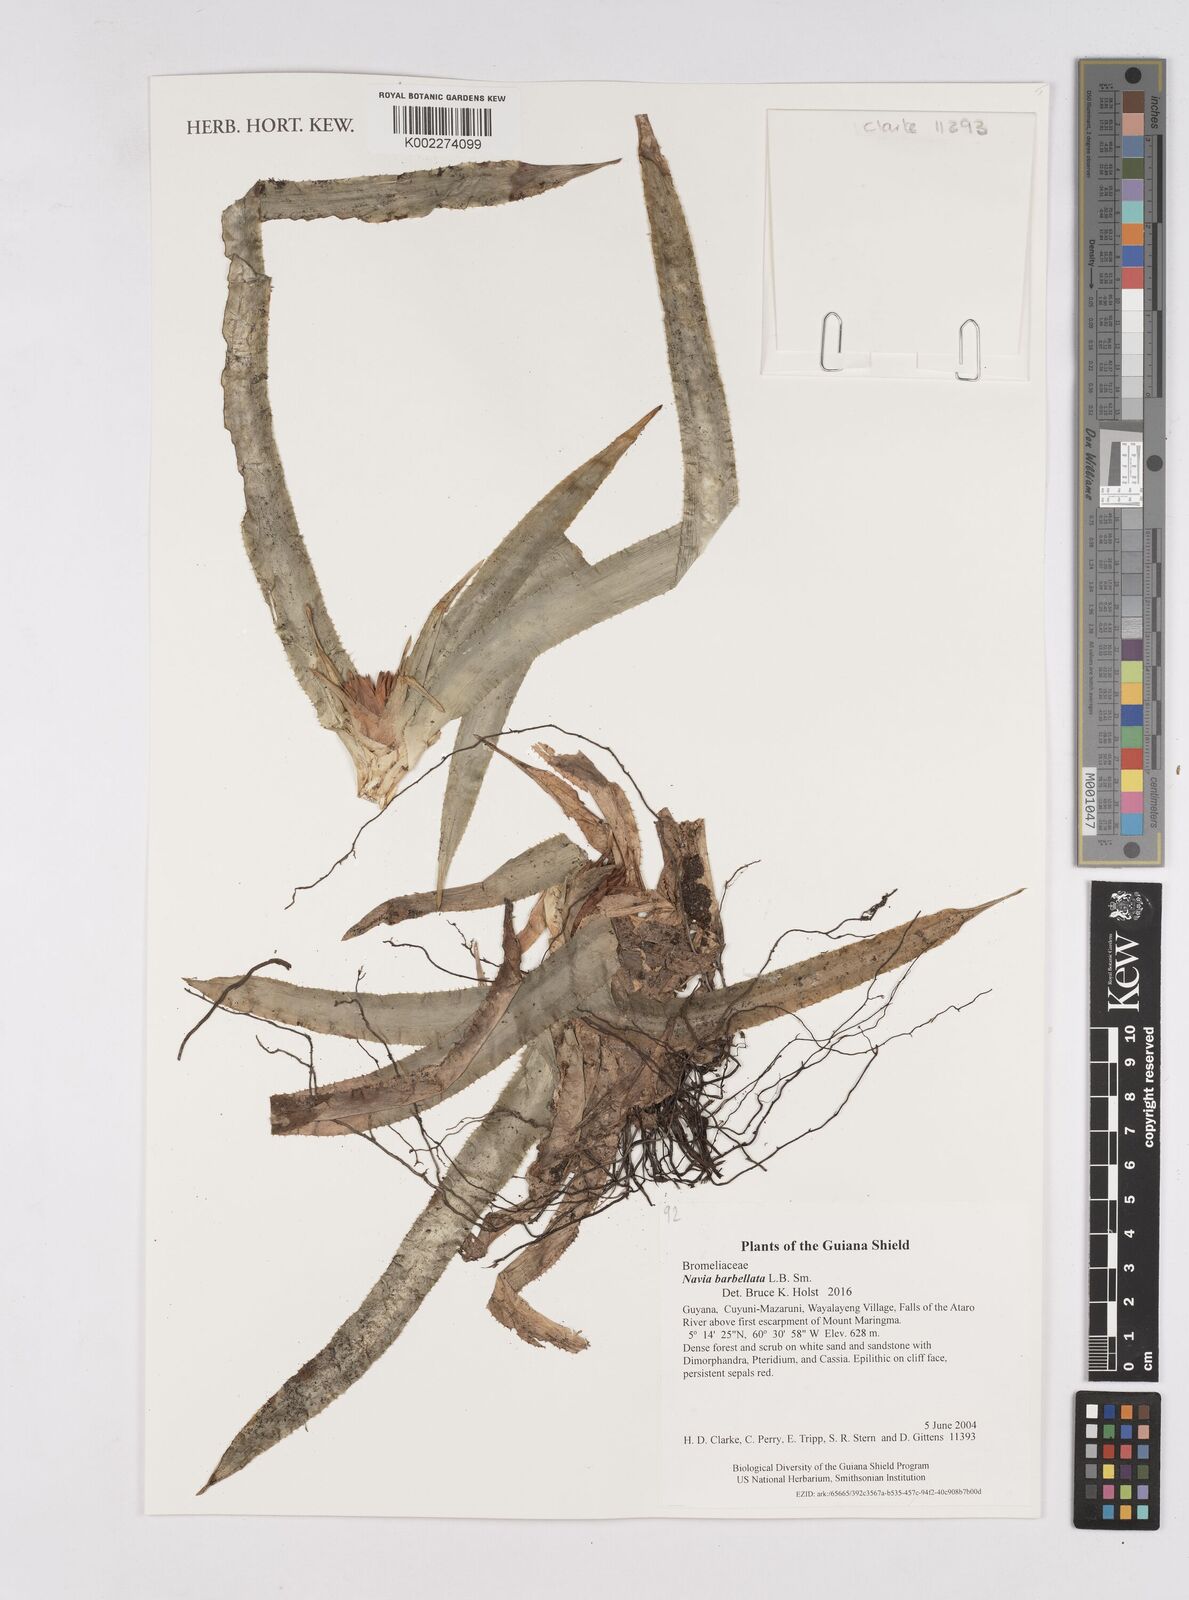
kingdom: Plantae
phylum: Tracheophyta
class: Liliopsida
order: Poales
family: Bromeliaceae
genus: Navia
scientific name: Navia barbellata
